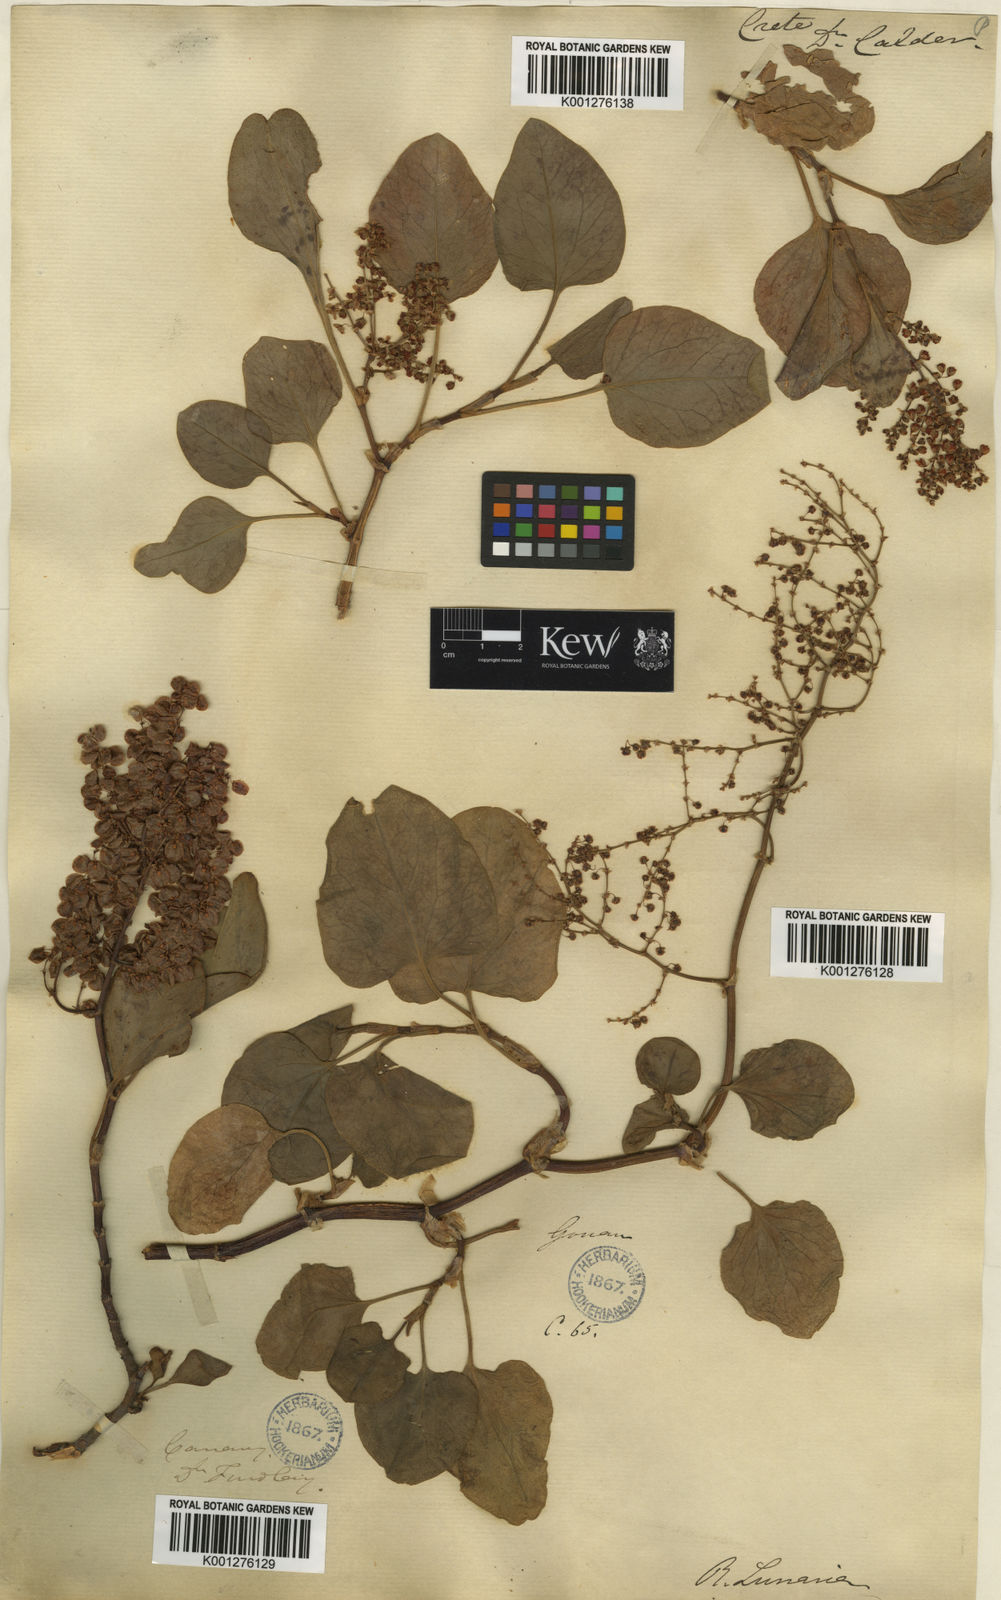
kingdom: Plantae
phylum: Tracheophyta
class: Magnoliopsida
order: Caryophyllales
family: Polygonaceae
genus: Rumex
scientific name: Rumex lunaria
